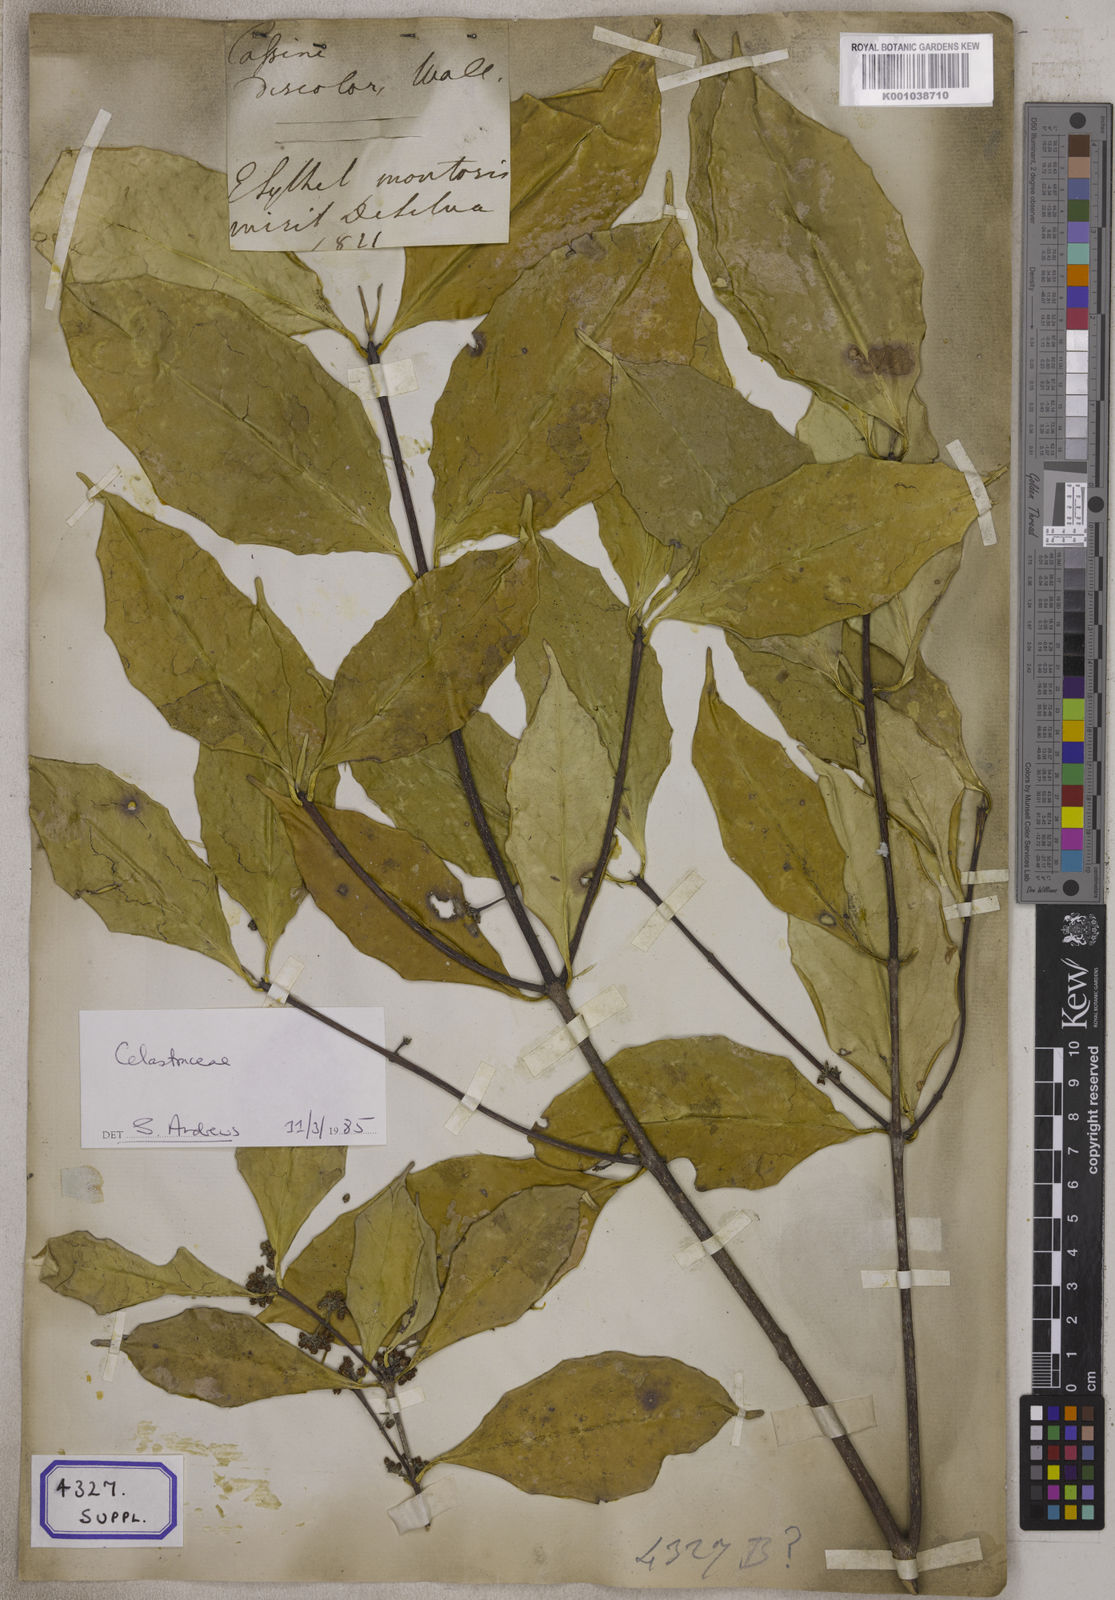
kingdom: Plantae
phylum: Tracheophyta
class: Magnoliopsida
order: Aquifoliales
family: Aquifoliaceae
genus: Ilex
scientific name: Ilex dipyrena
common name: Himalayan holly
